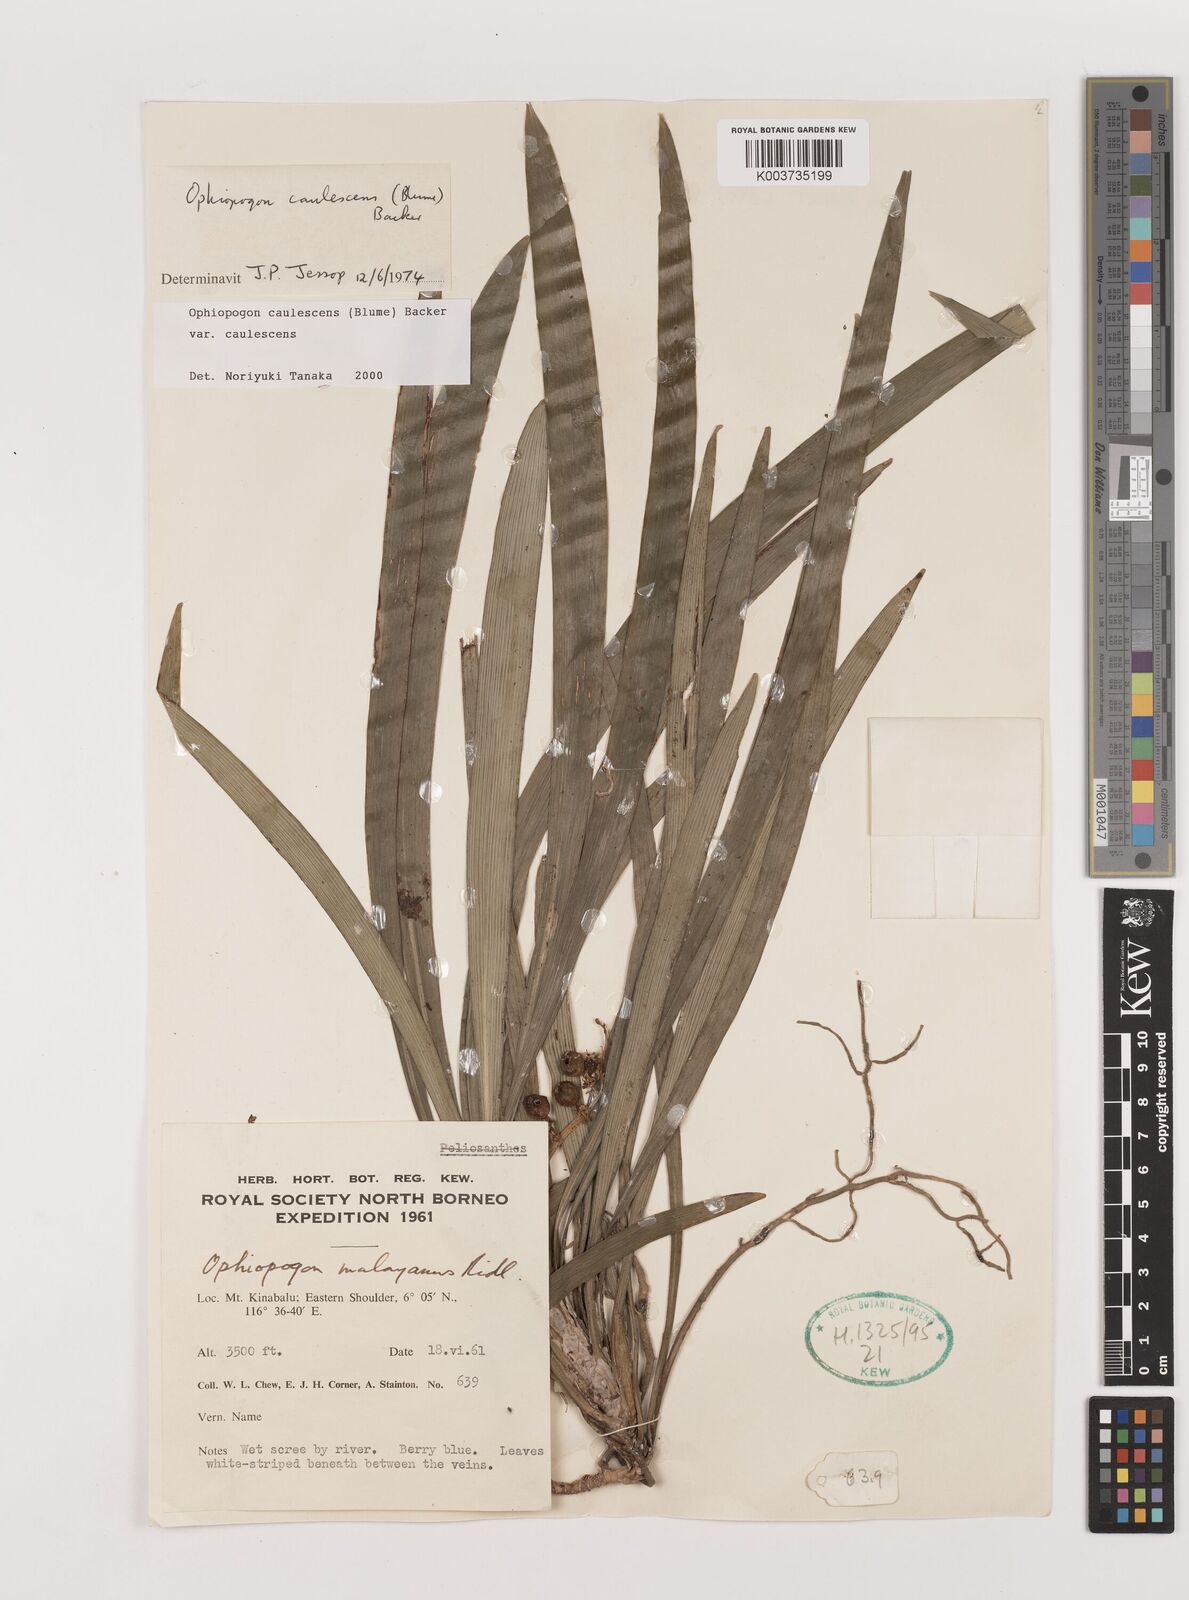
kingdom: Plantae
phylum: Tracheophyta
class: Liliopsida
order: Asparagales
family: Asparagaceae
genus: Ophiopogon
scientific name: Ophiopogon caulescens
